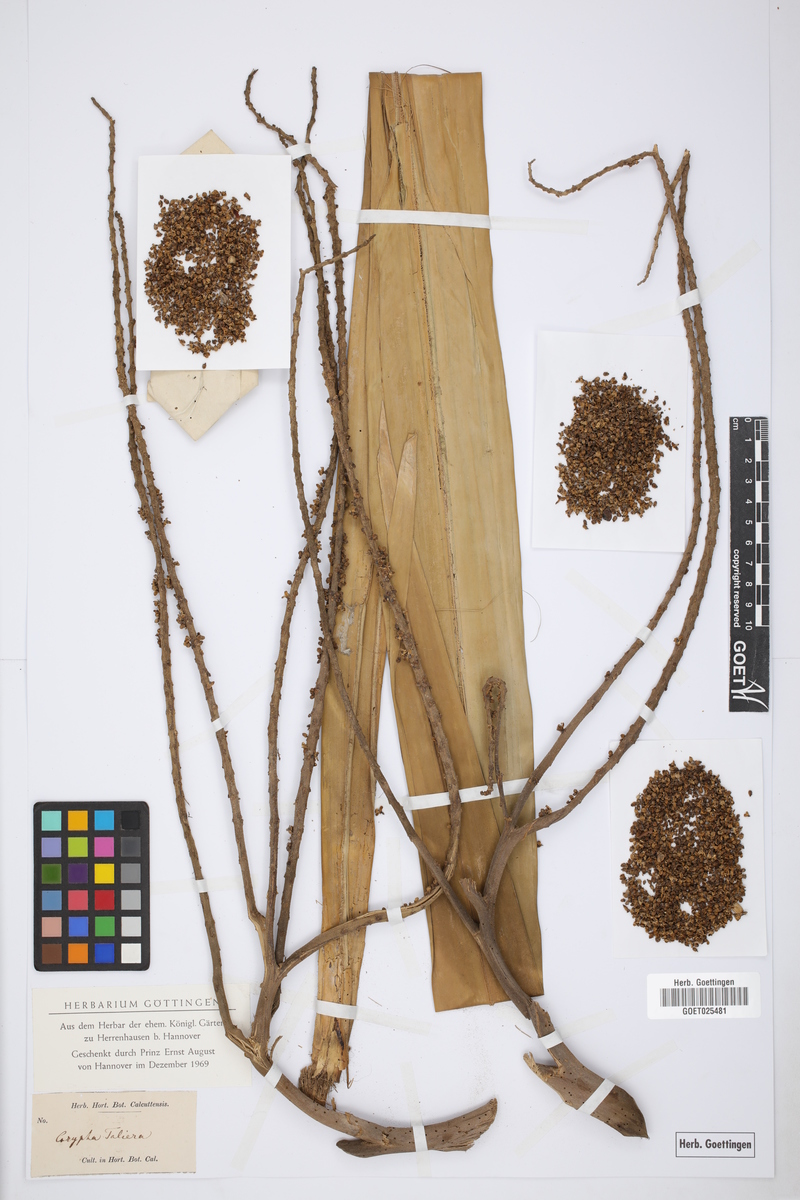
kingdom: Plantae
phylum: Tracheophyta
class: Liliopsida
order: Arecales
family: Arecaceae
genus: Corypha
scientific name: Corypha taliera
